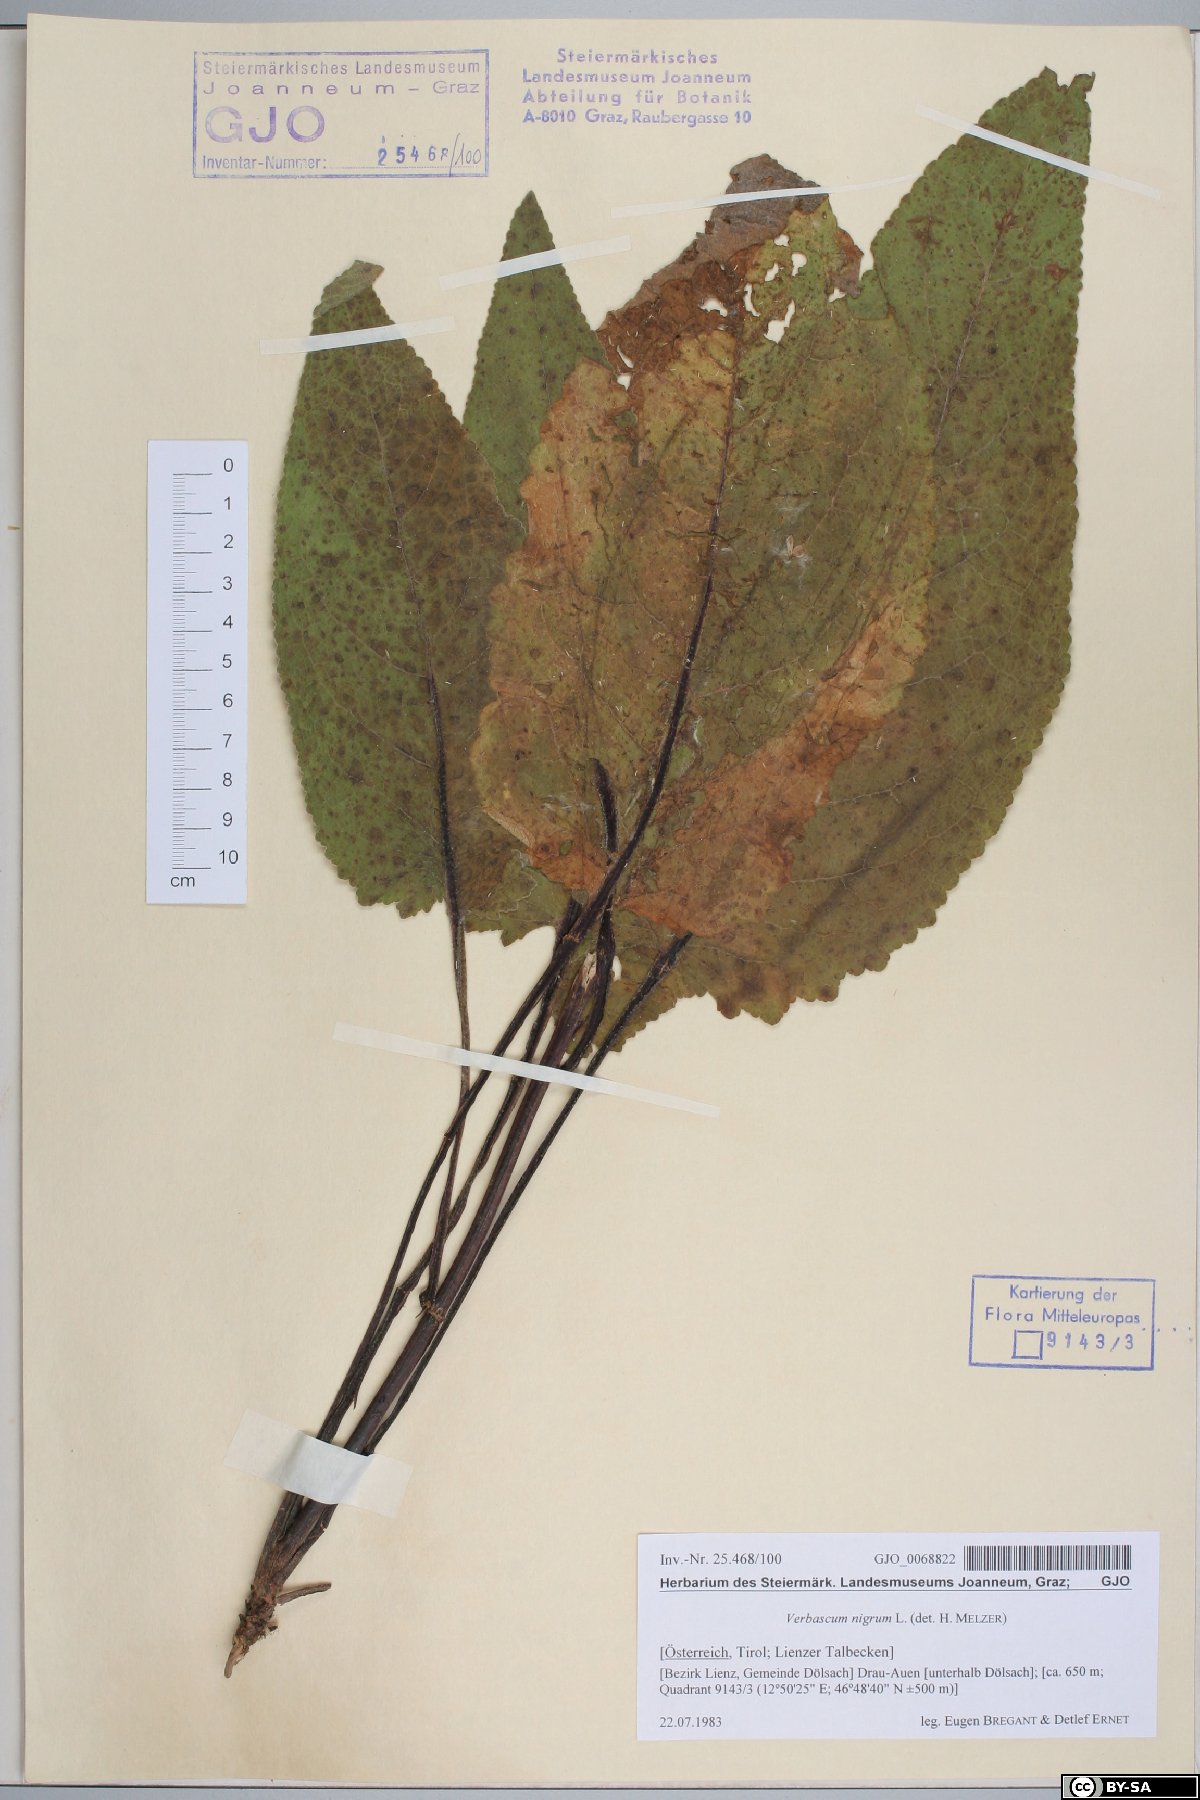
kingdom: Plantae
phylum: Tracheophyta
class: Magnoliopsida
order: Lamiales
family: Scrophulariaceae
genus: Verbascum
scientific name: Verbascum nigrum
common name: Dark mullein
